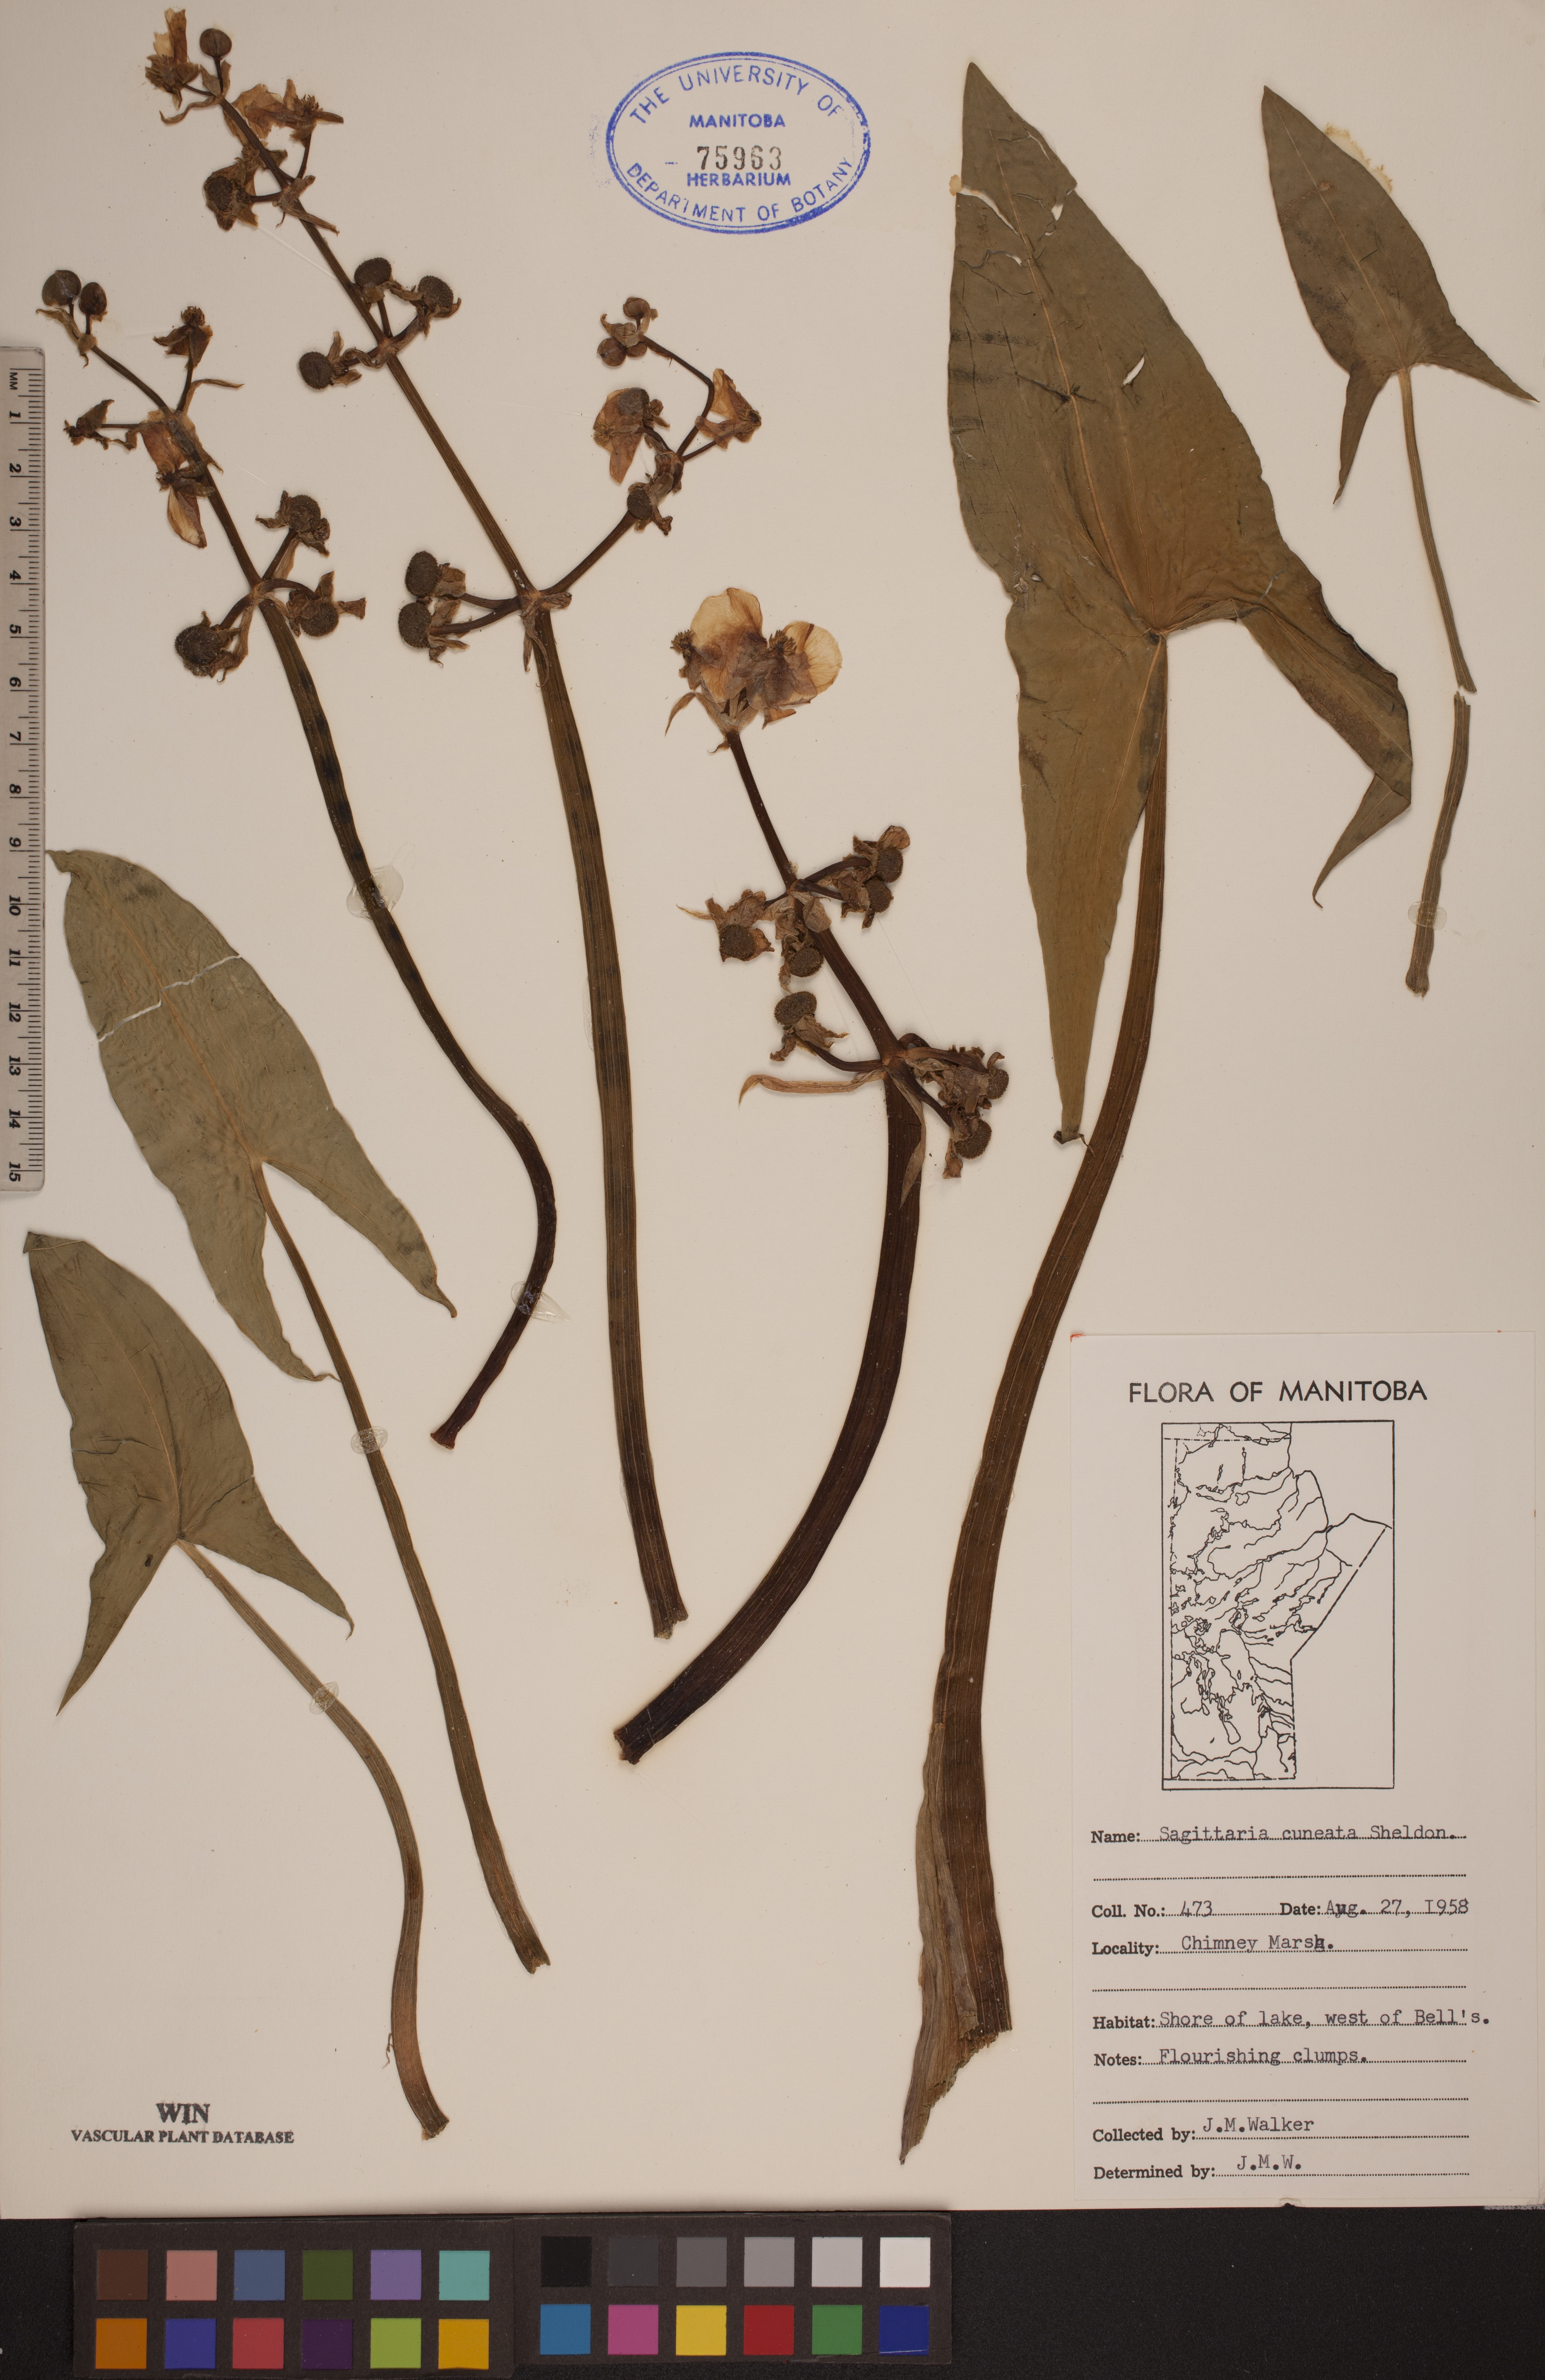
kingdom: Plantae
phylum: Tracheophyta
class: Liliopsida
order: Alismatales
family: Alismataceae
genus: Sagittaria
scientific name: Sagittaria cuneata
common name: Northern arrowhead
